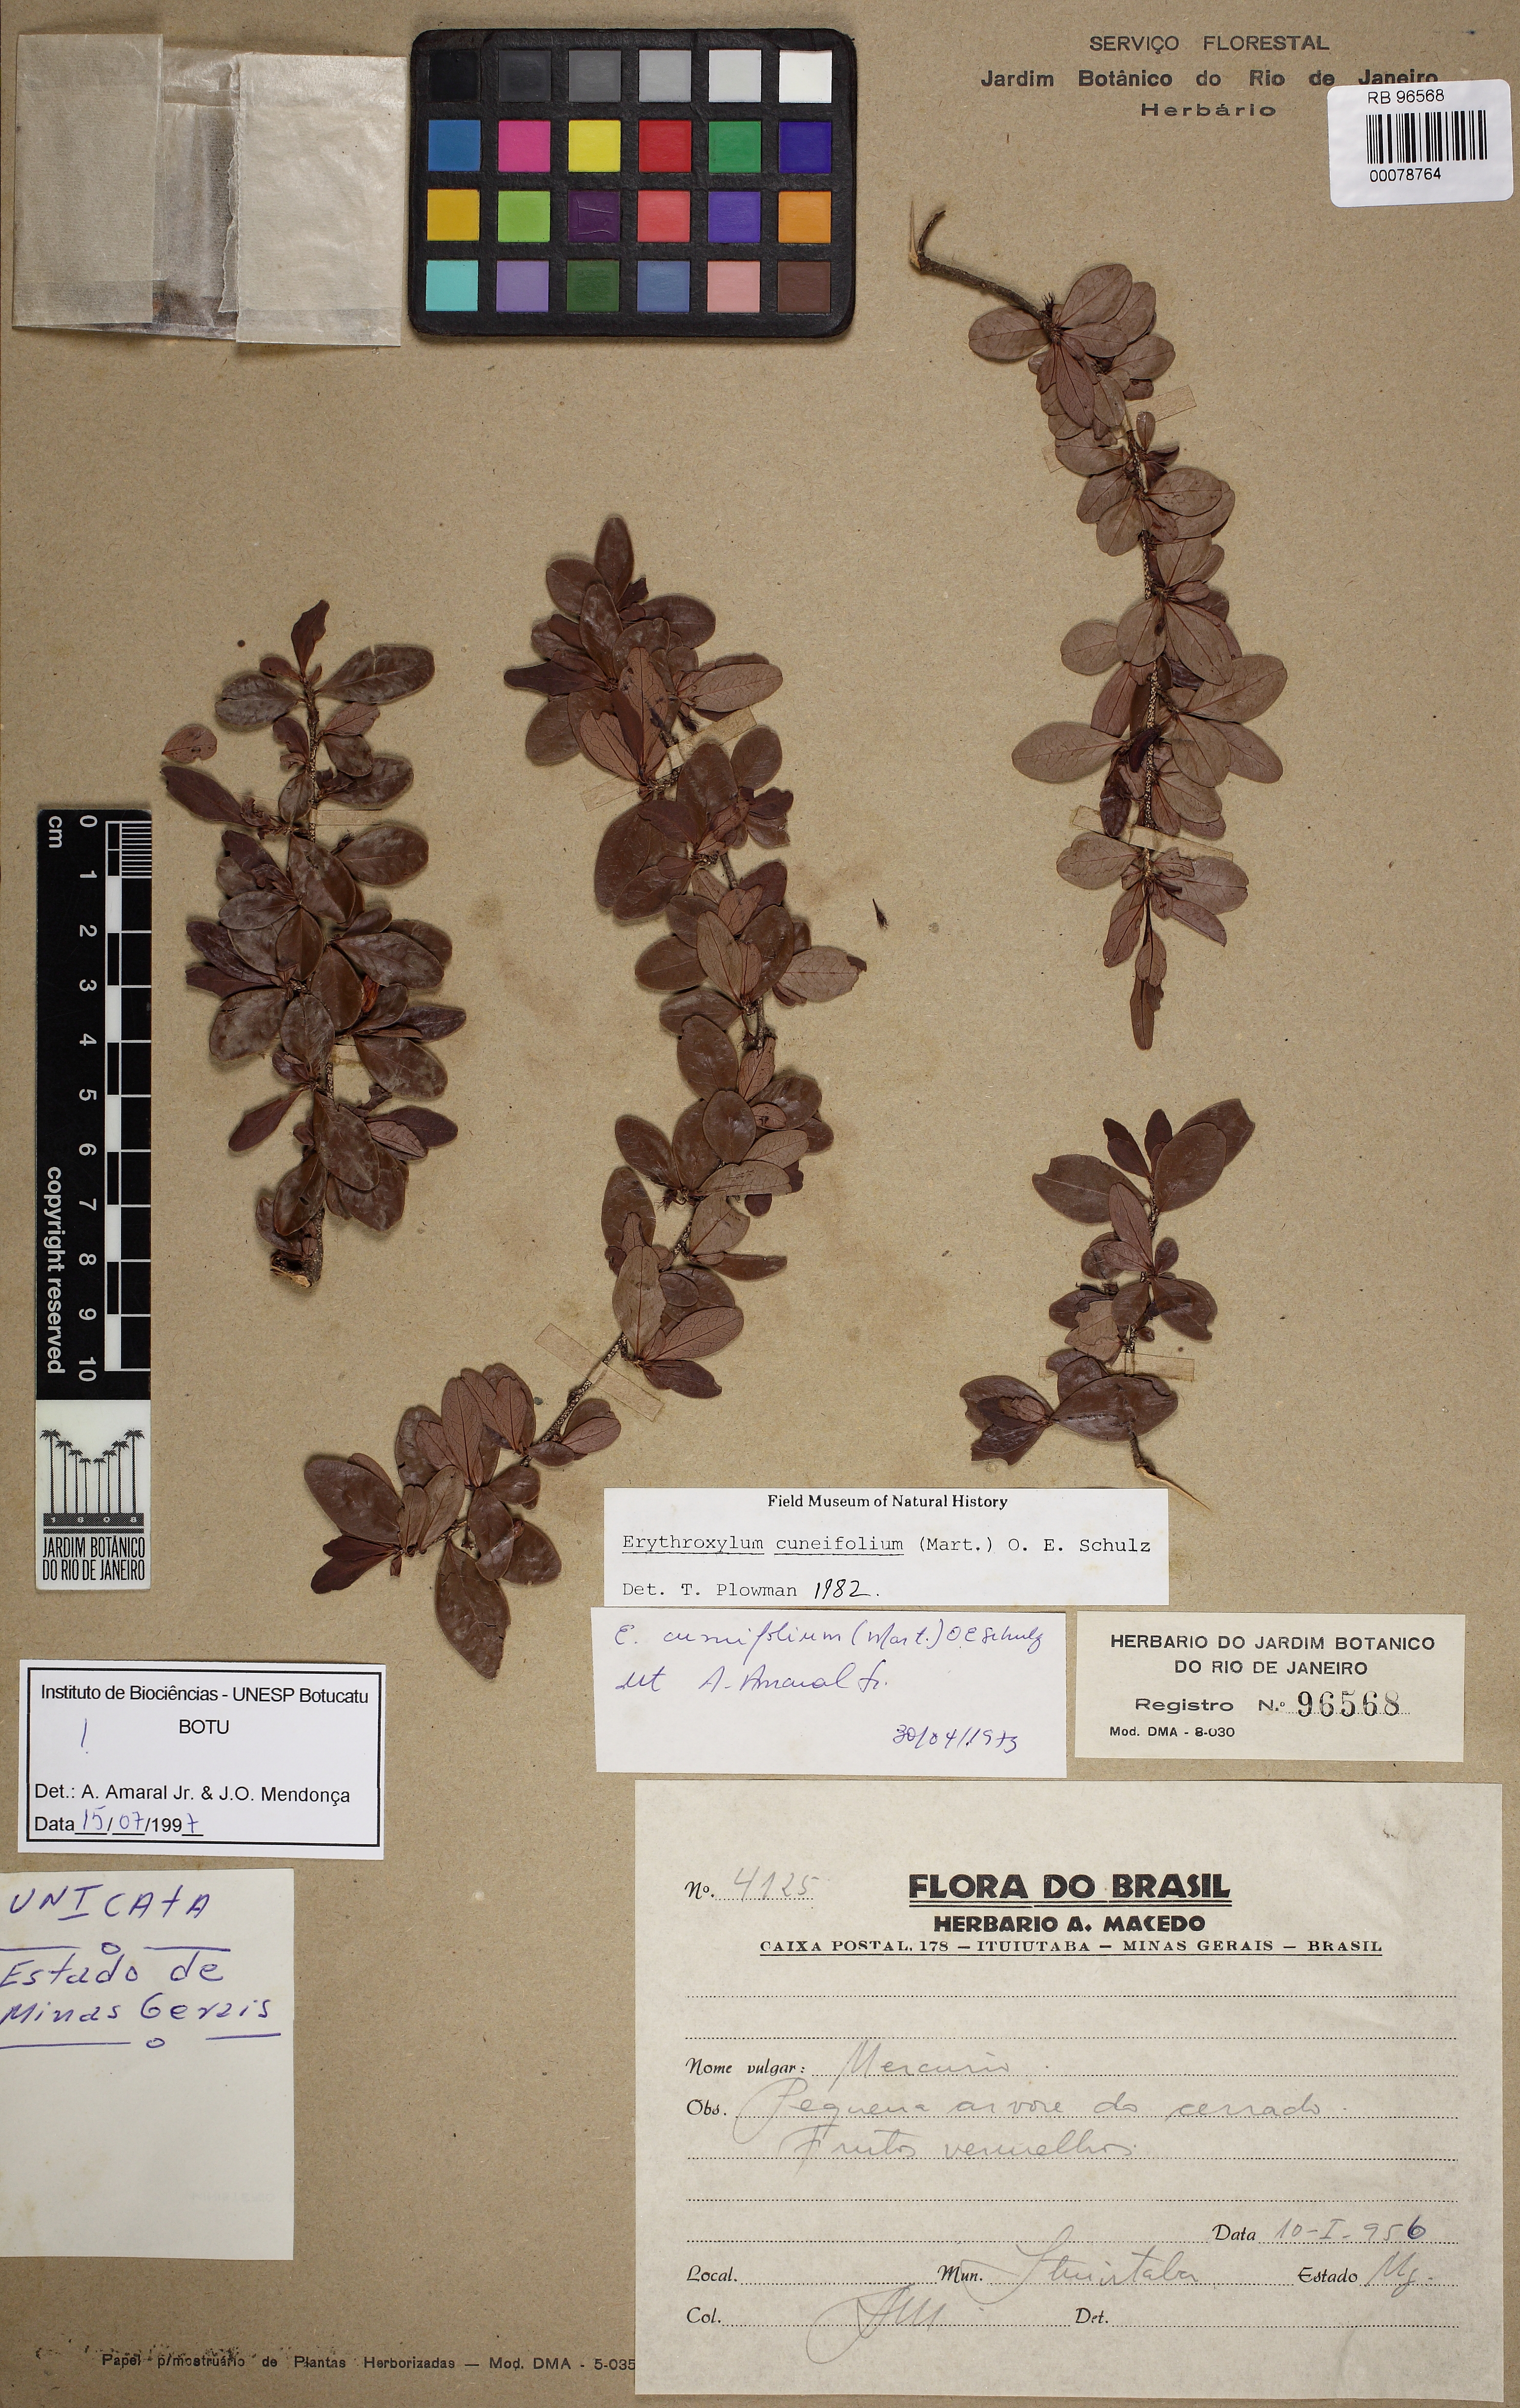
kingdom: Plantae
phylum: Tracheophyta
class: Magnoliopsida
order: Malpighiales
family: Erythroxylaceae
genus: Erythroxylum
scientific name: Erythroxylum cuneifolium
